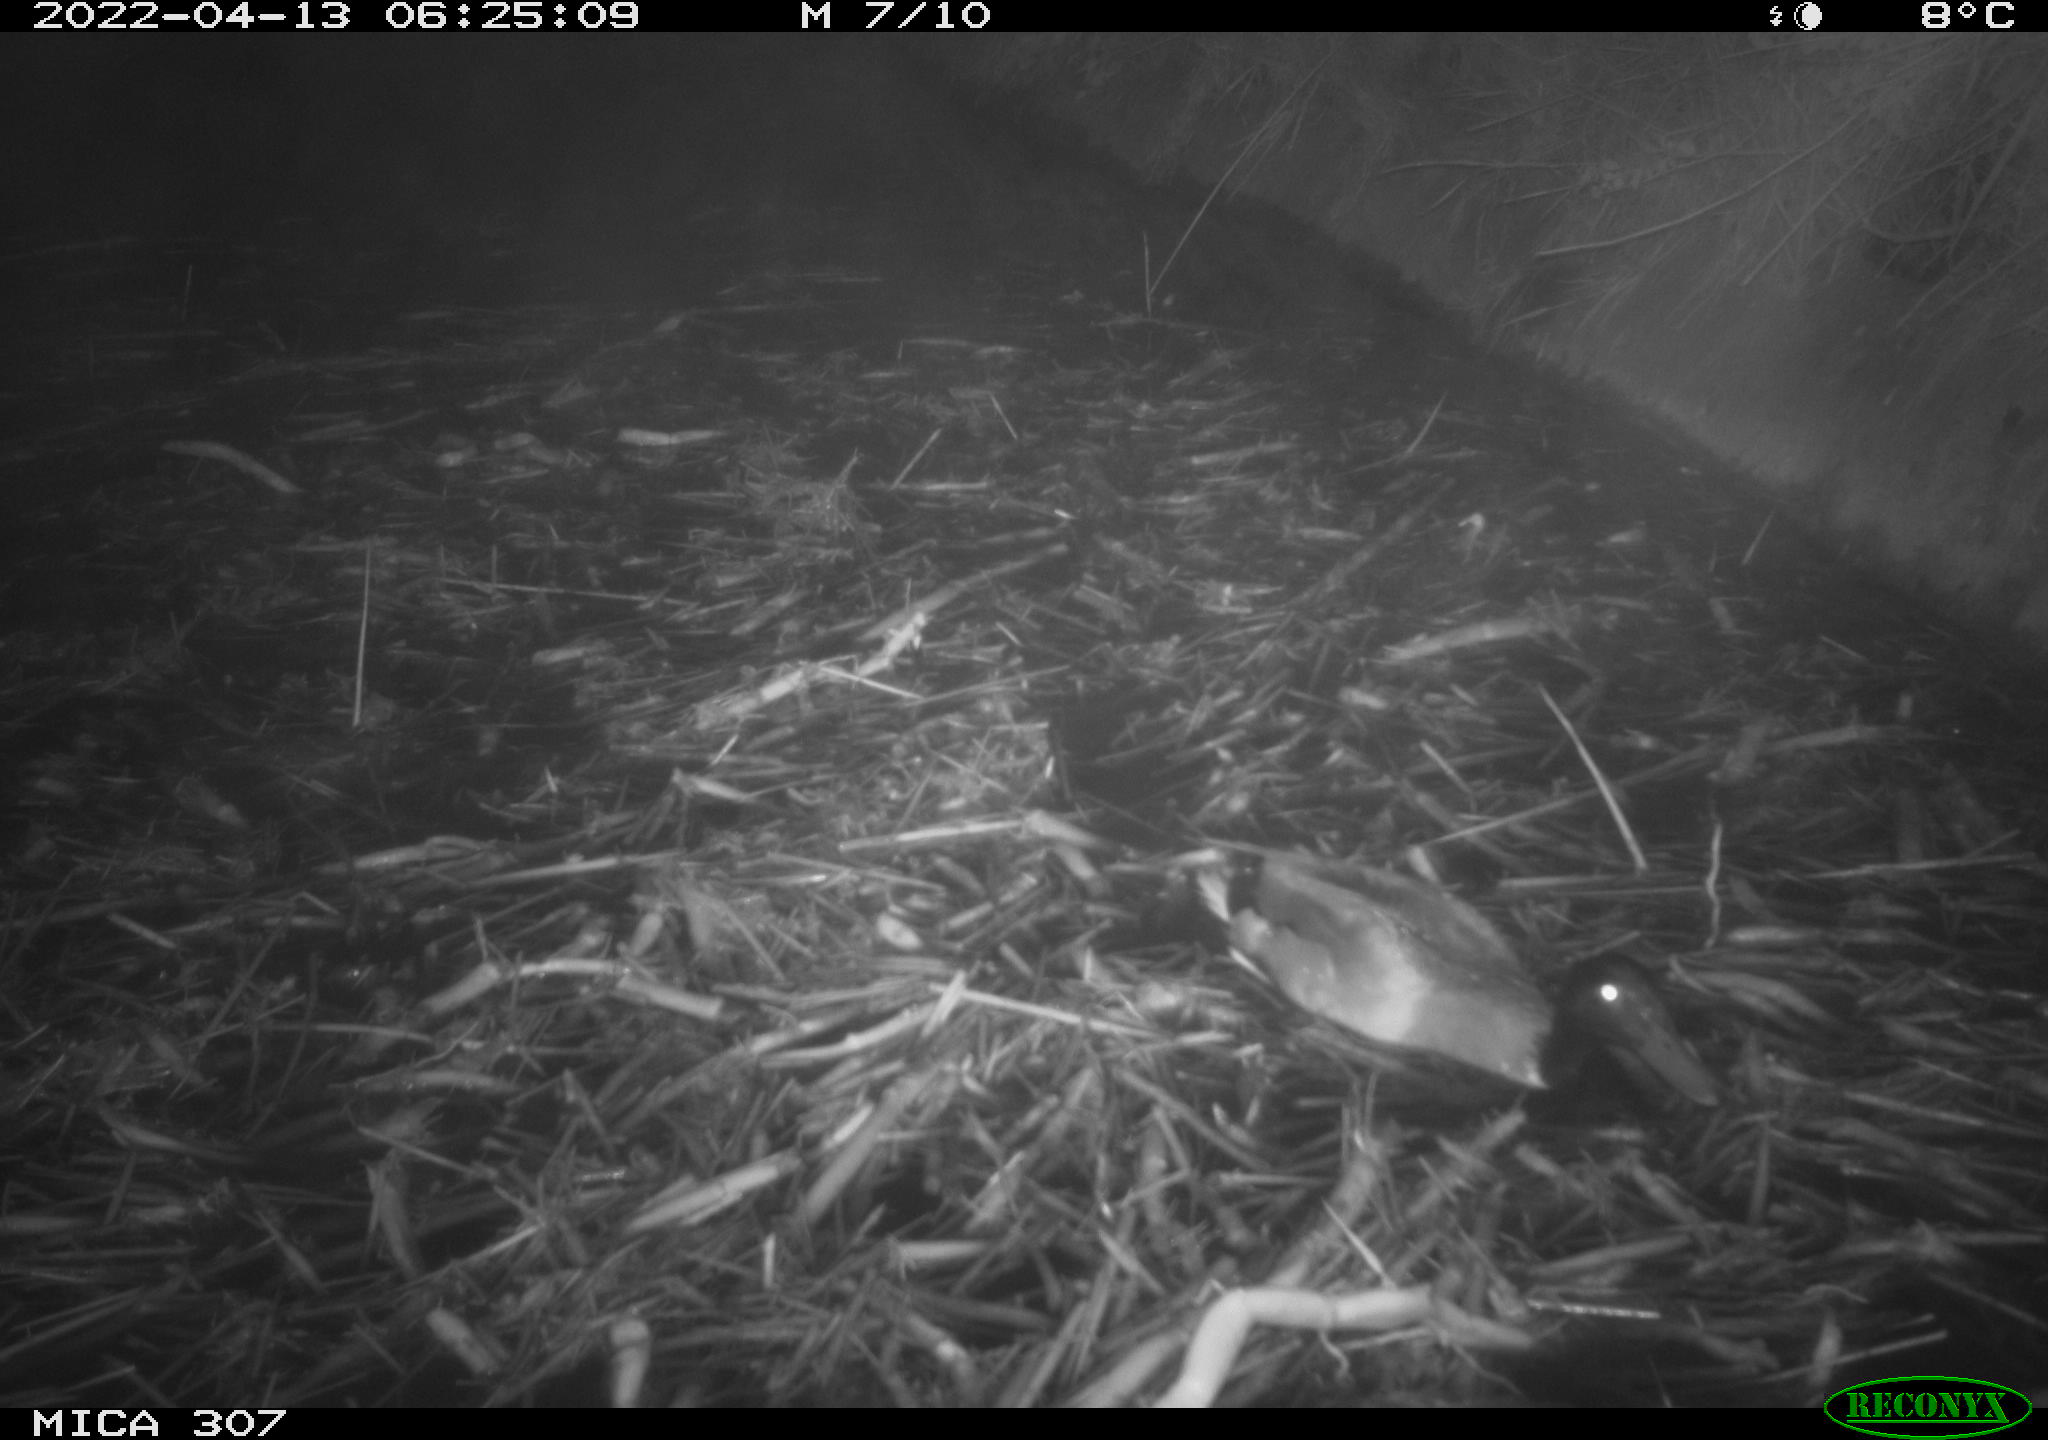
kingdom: Animalia
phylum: Chordata
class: Aves
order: Anseriformes
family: Anatidae
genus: Anas
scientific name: Anas platyrhynchos
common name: Mallard
